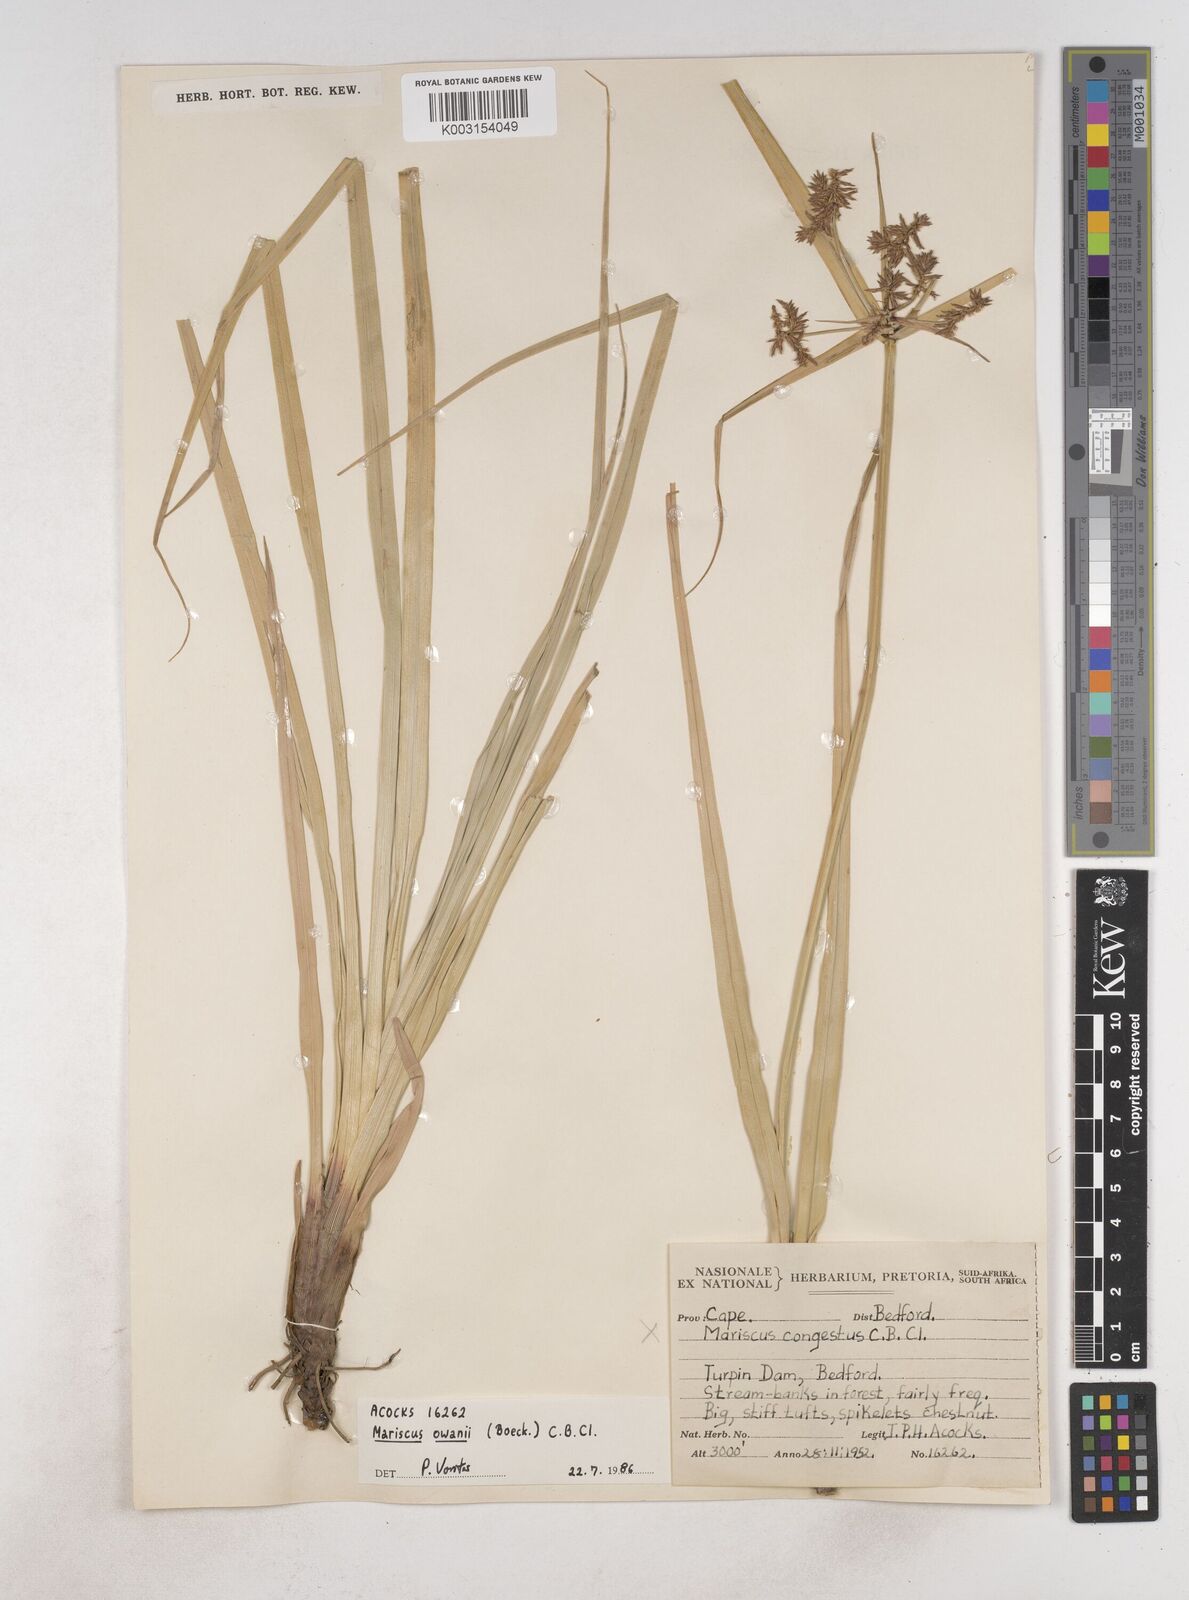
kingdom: Plantae
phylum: Tracheophyta
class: Liliopsida
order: Poales
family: Cyperaceae
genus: Cyperus
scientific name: Cyperus owanii
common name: Owan's flatsedge
